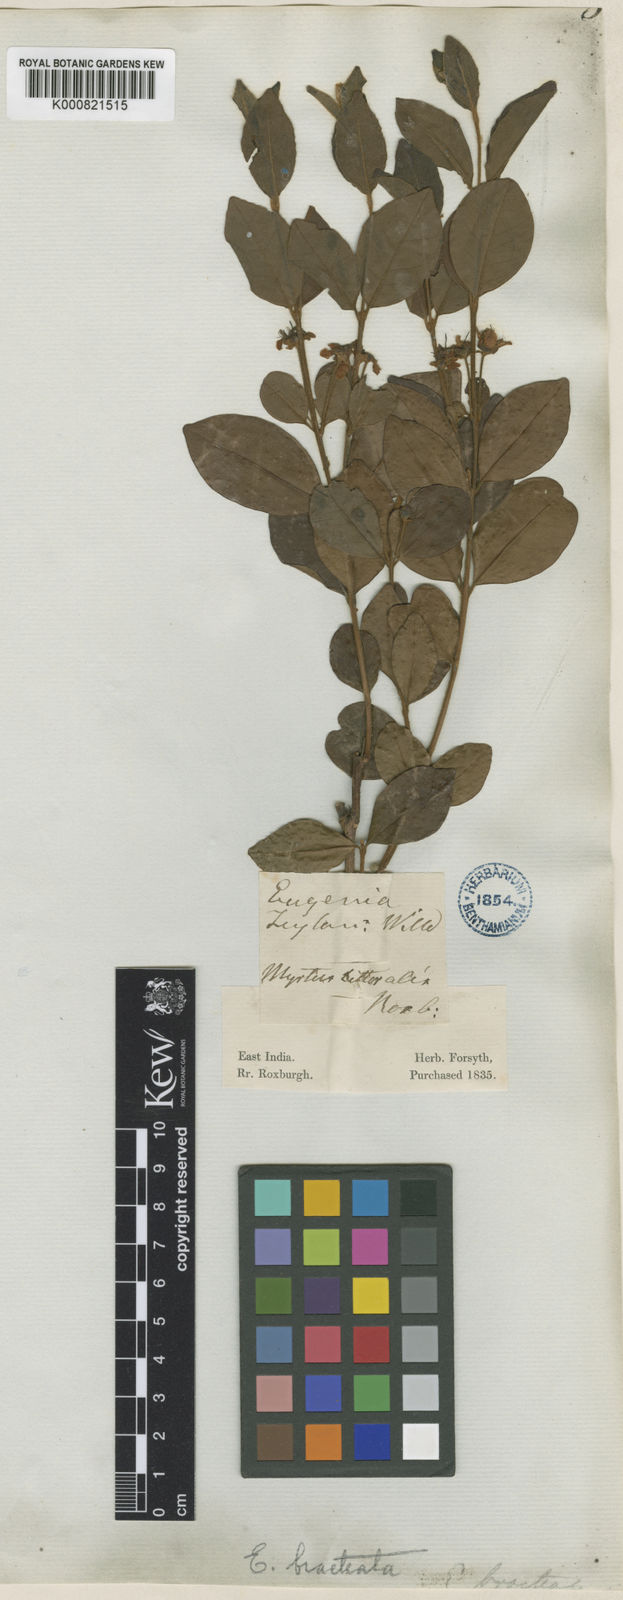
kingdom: Plantae
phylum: Tracheophyta
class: Magnoliopsida
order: Myrtales
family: Myrtaceae
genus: Eugenia
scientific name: Eugenia roxburghii
